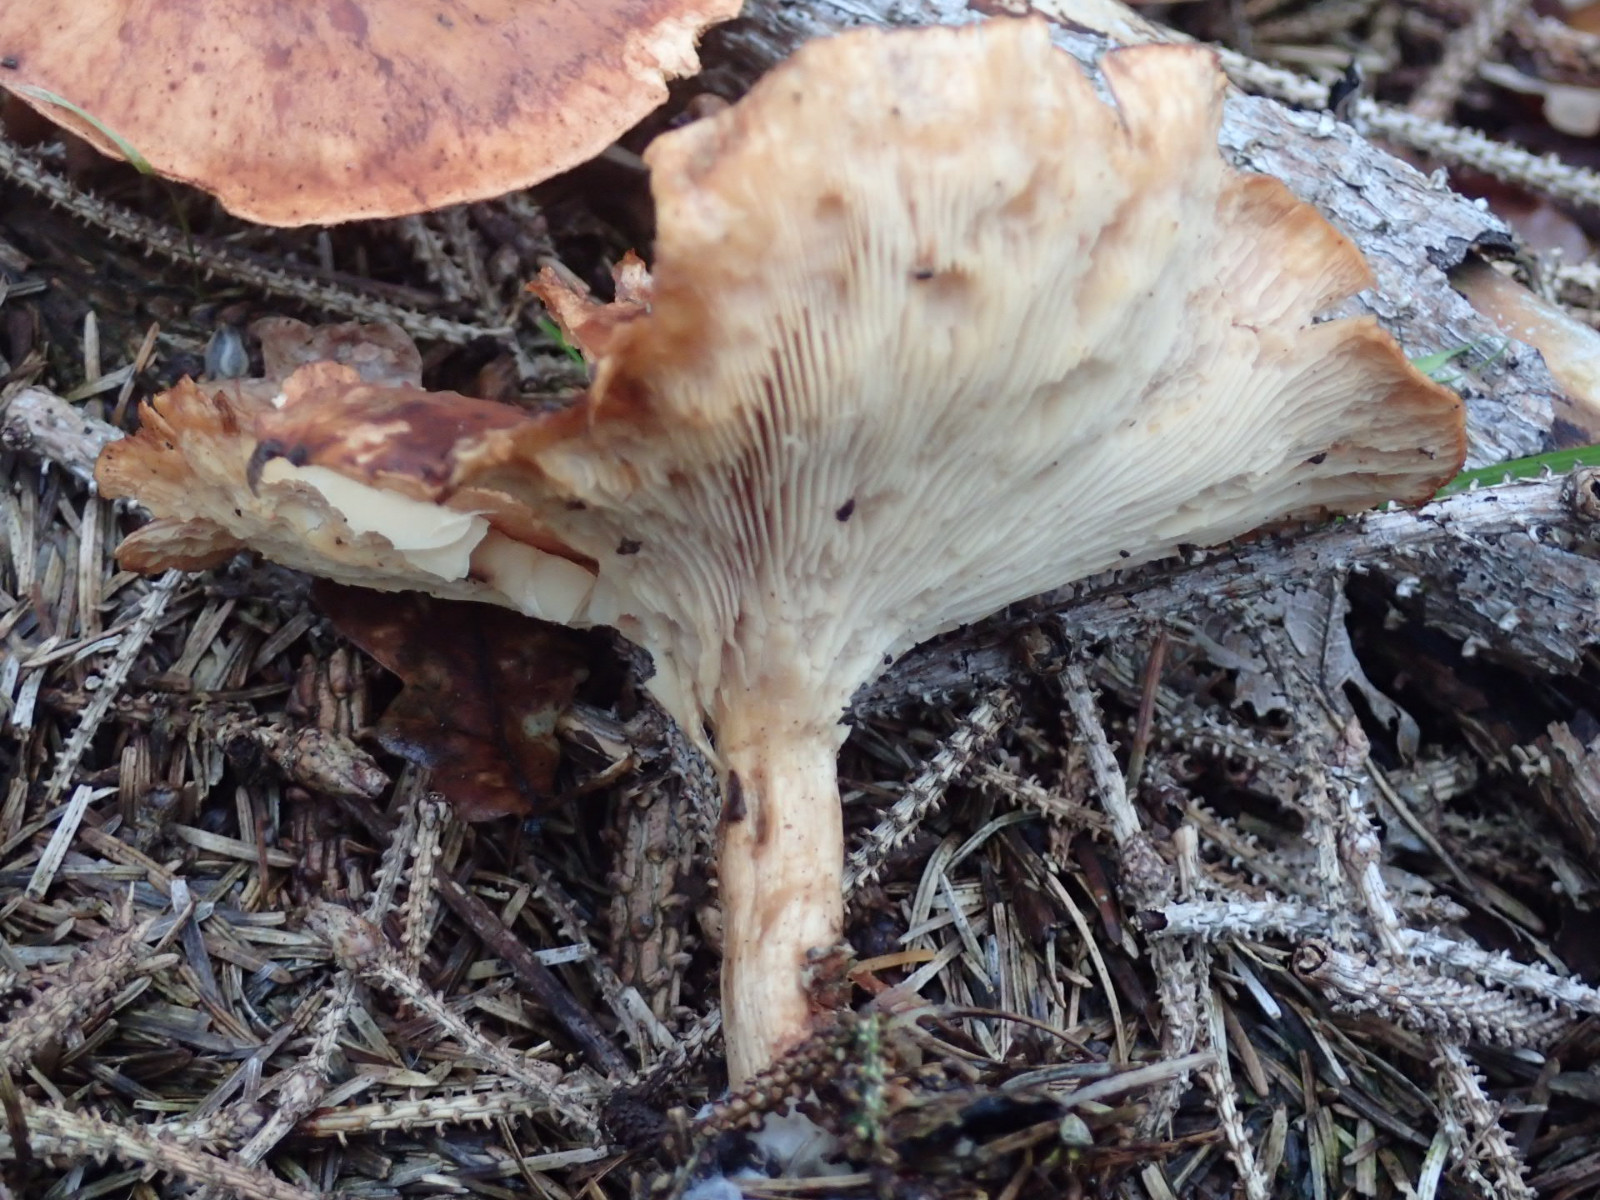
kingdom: Fungi
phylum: Basidiomycota
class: Agaricomycetes
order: Agaricales
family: Tricholomataceae
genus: Paralepista
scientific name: Paralepista flaccida
